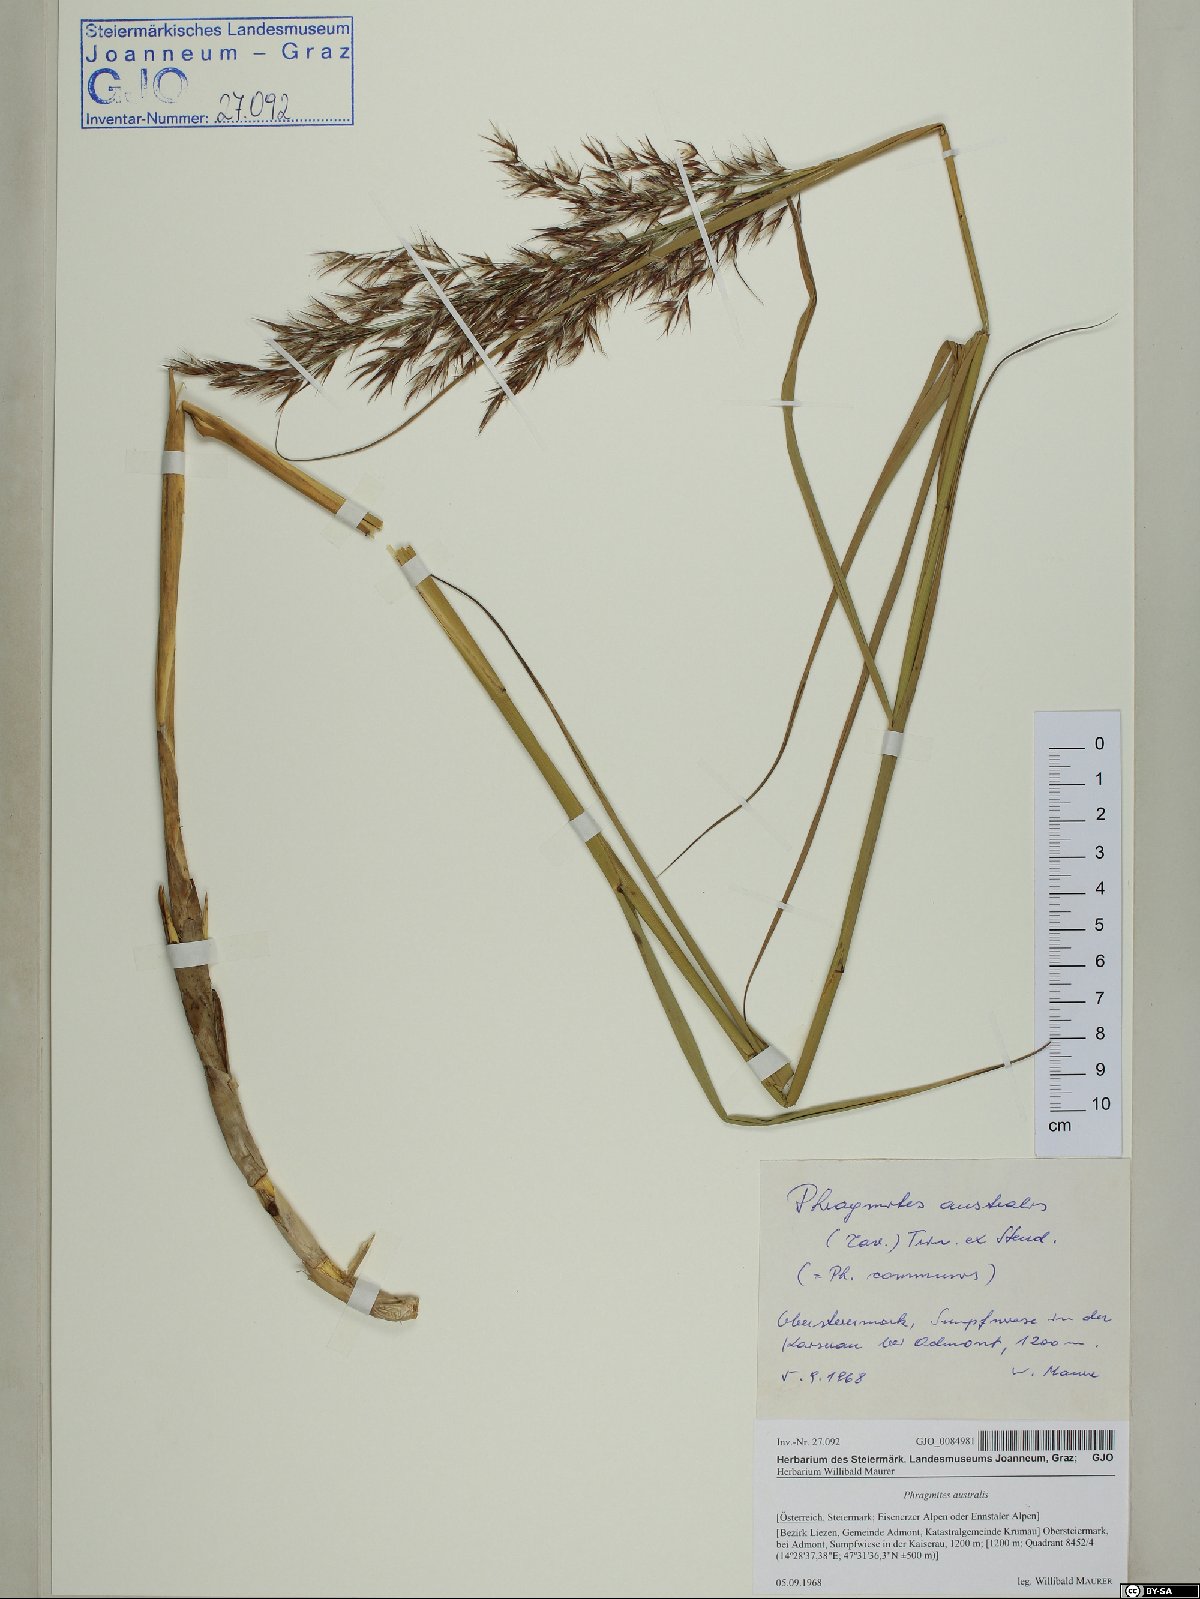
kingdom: Plantae
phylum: Tracheophyta
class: Liliopsida
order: Poales
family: Poaceae
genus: Phragmites
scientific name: Phragmites australis
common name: Common reed
